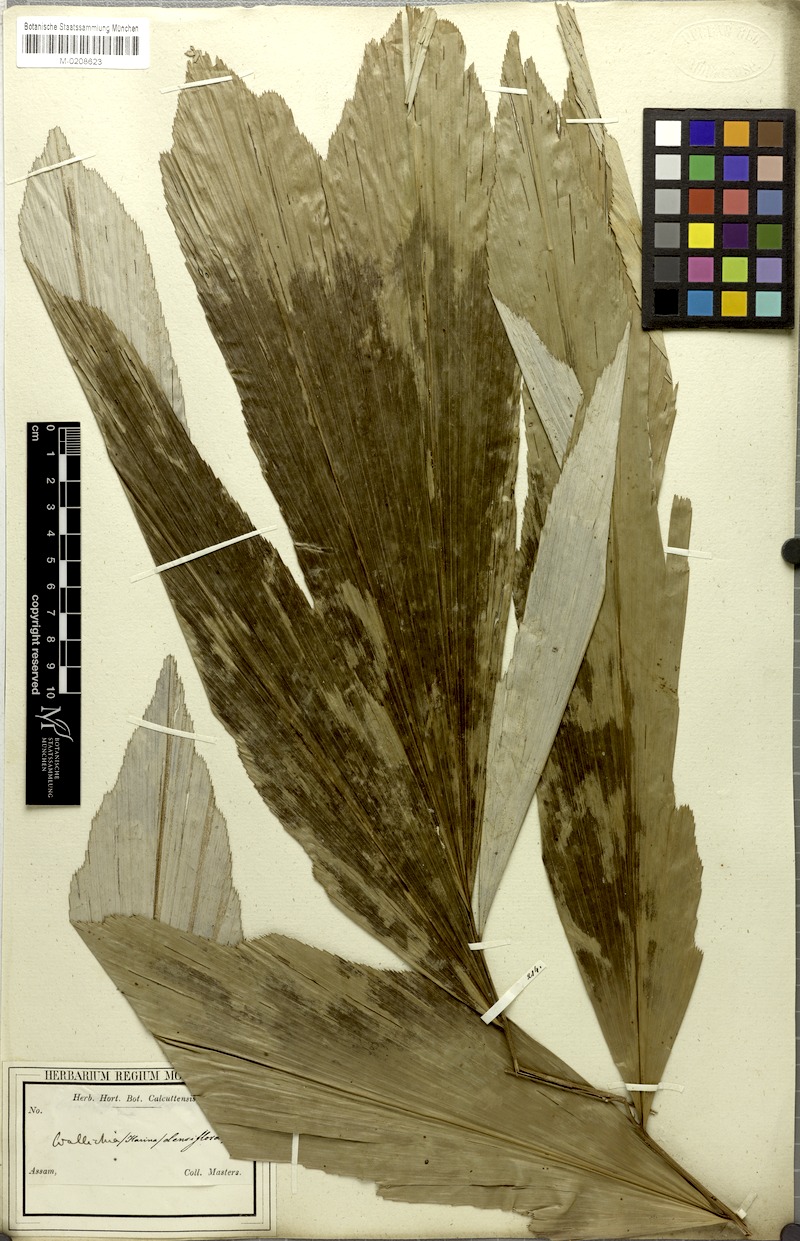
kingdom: Plantae
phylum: Tracheophyta
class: Liliopsida
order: Arecales
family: Arecaceae
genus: Wallichia
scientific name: Wallichia oblongifolia
